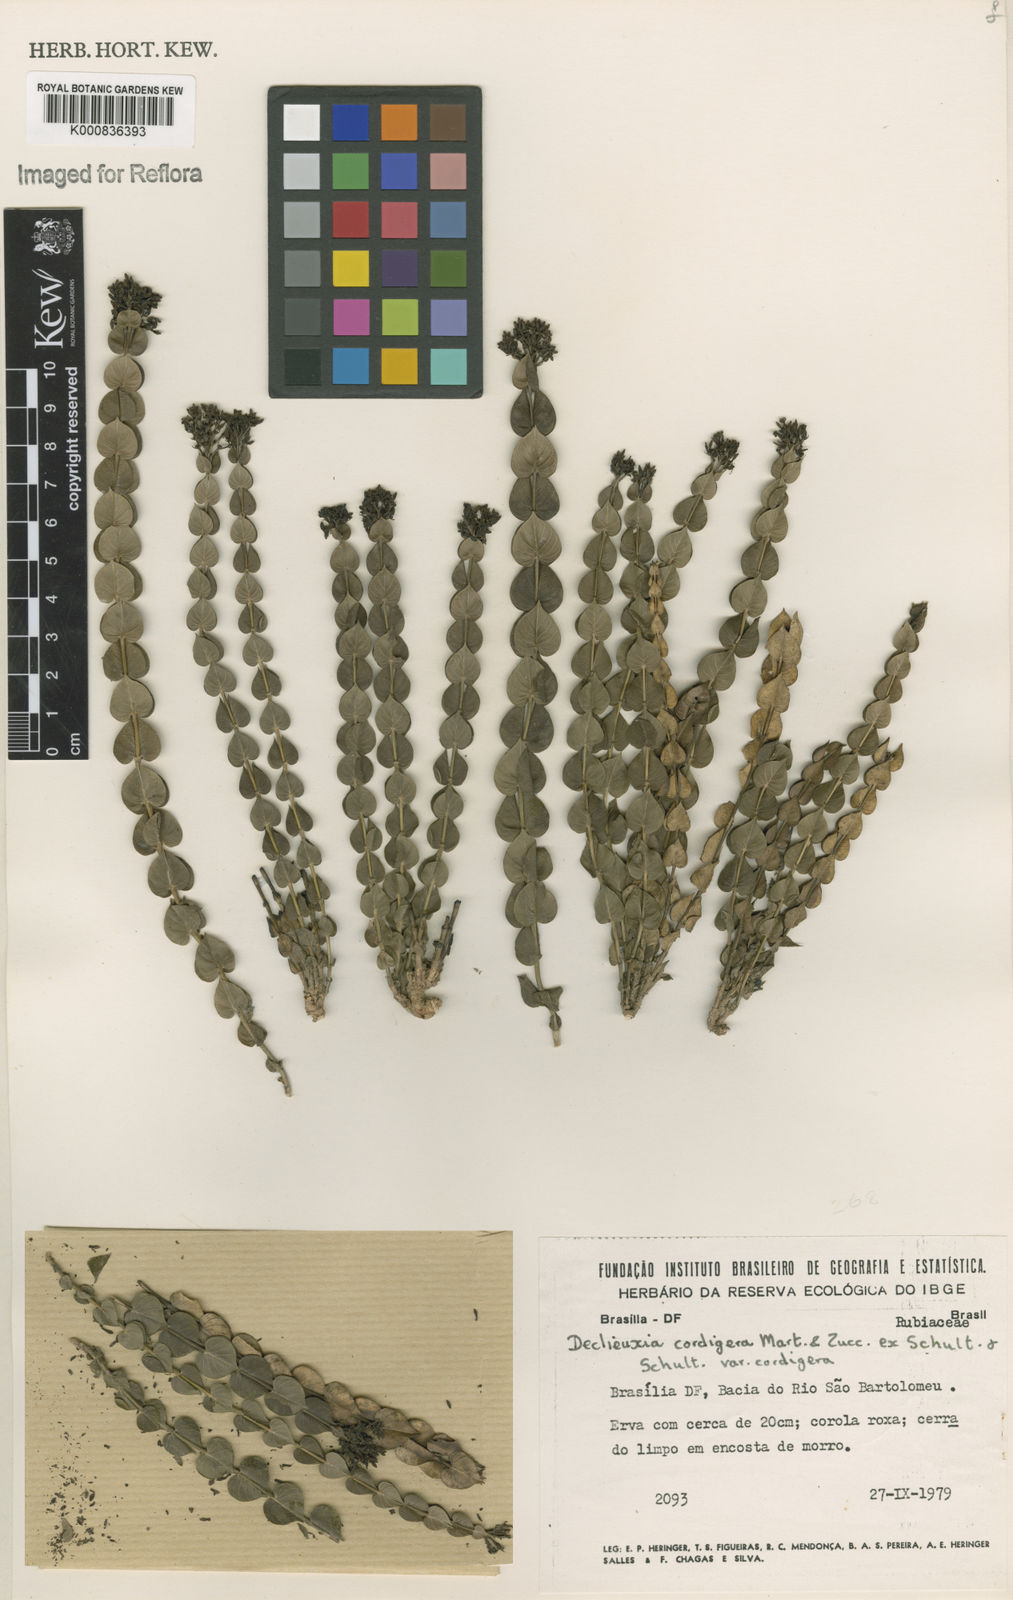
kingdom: Plantae
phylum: Tracheophyta
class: Magnoliopsida
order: Gentianales
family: Rubiaceae
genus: Declieuxia
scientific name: Declieuxia cordigera
